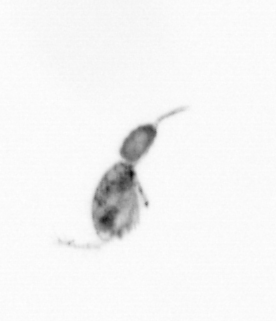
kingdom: Animalia
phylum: Arthropoda
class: Copepoda
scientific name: Copepoda
